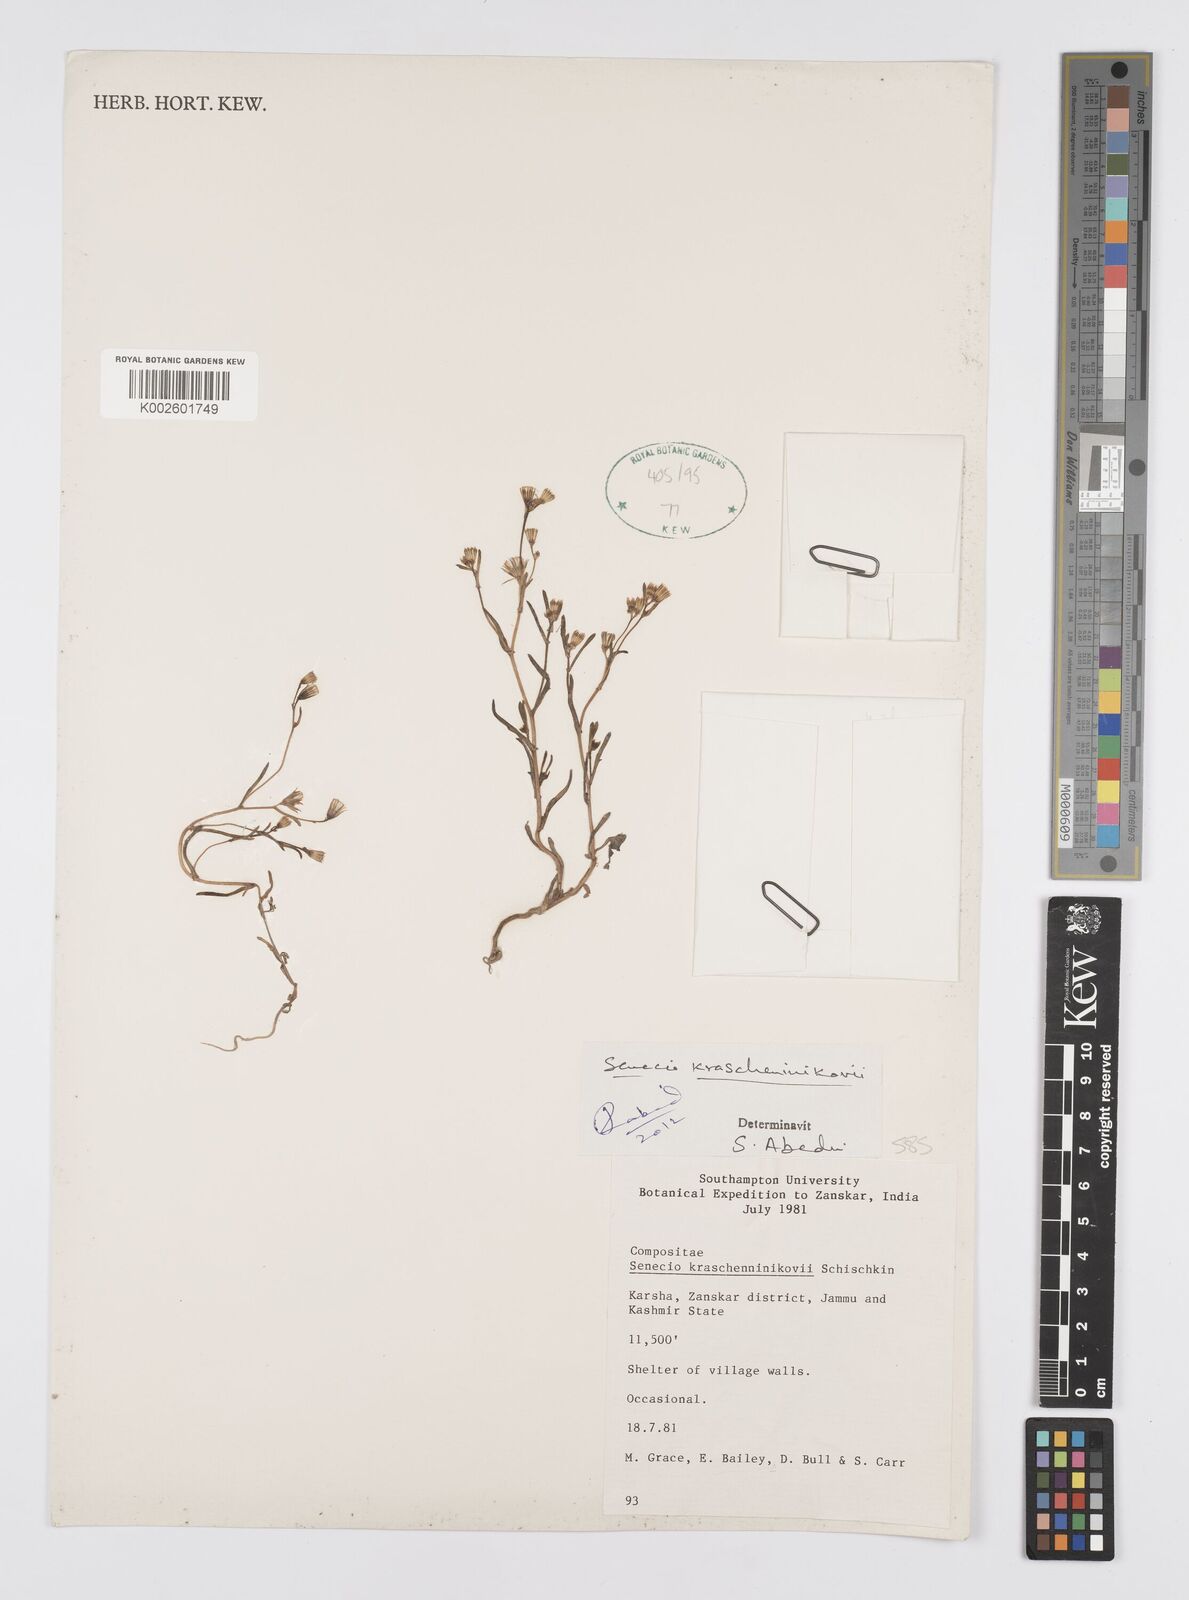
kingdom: Plantae
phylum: Tracheophyta
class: Magnoliopsida
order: Asterales
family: Asteraceae
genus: Senecio
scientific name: Senecio krascheninnikovii
